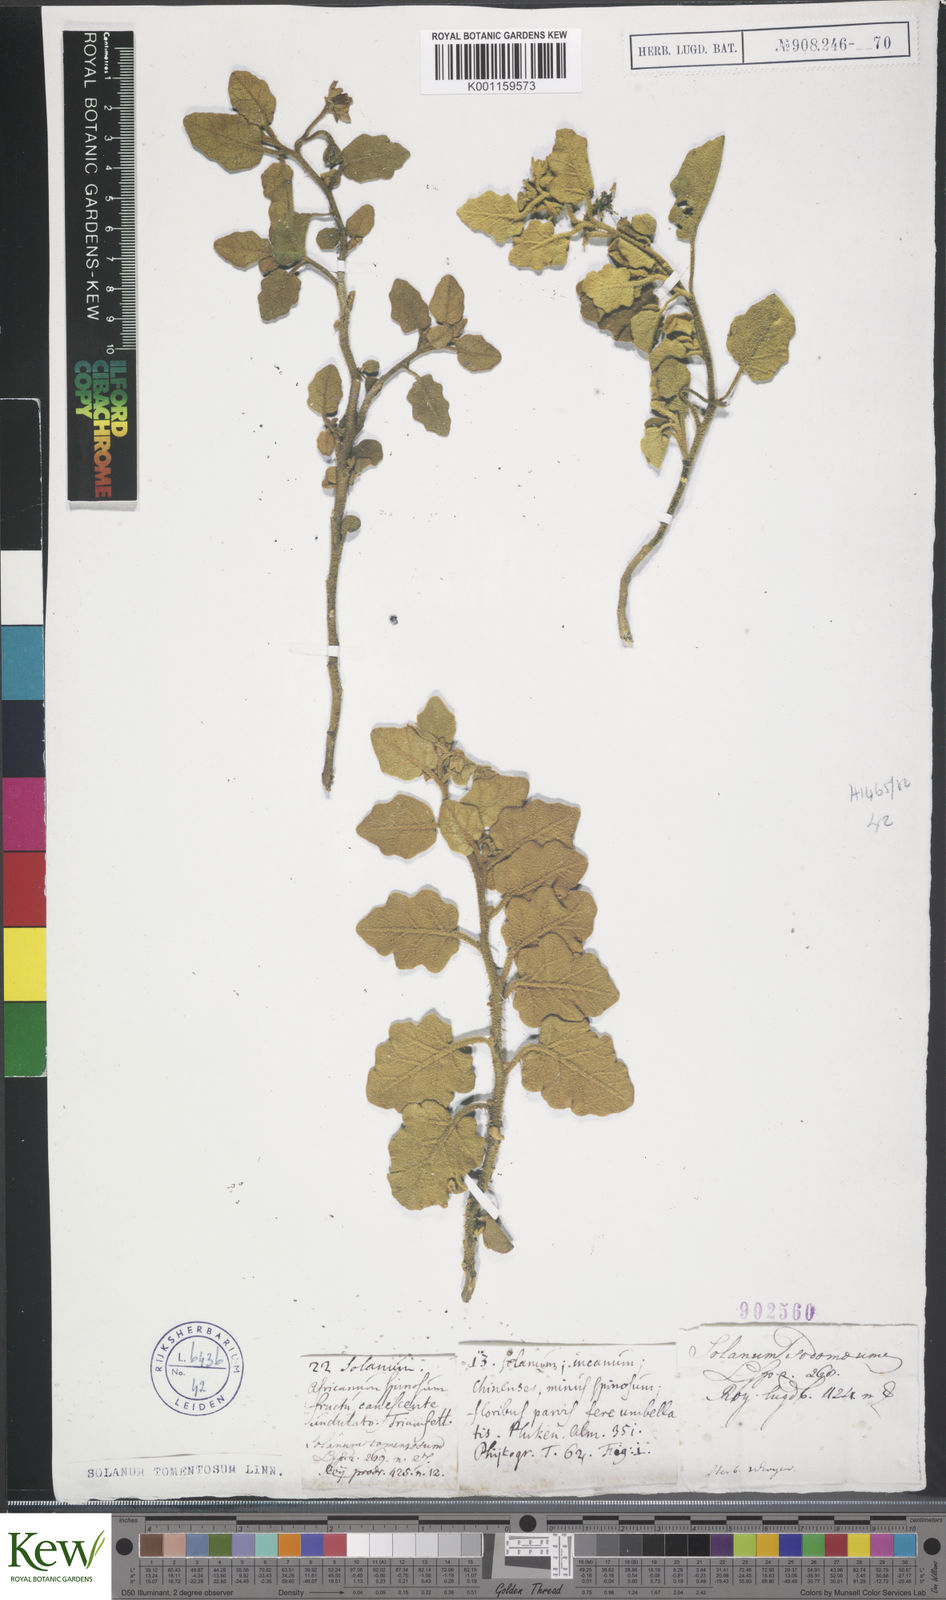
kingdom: Plantae
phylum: Tracheophyta
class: Magnoliopsida
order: Solanales
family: Solanaceae
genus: Solanum
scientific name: Solanum tomentosum
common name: Wild aubergine
